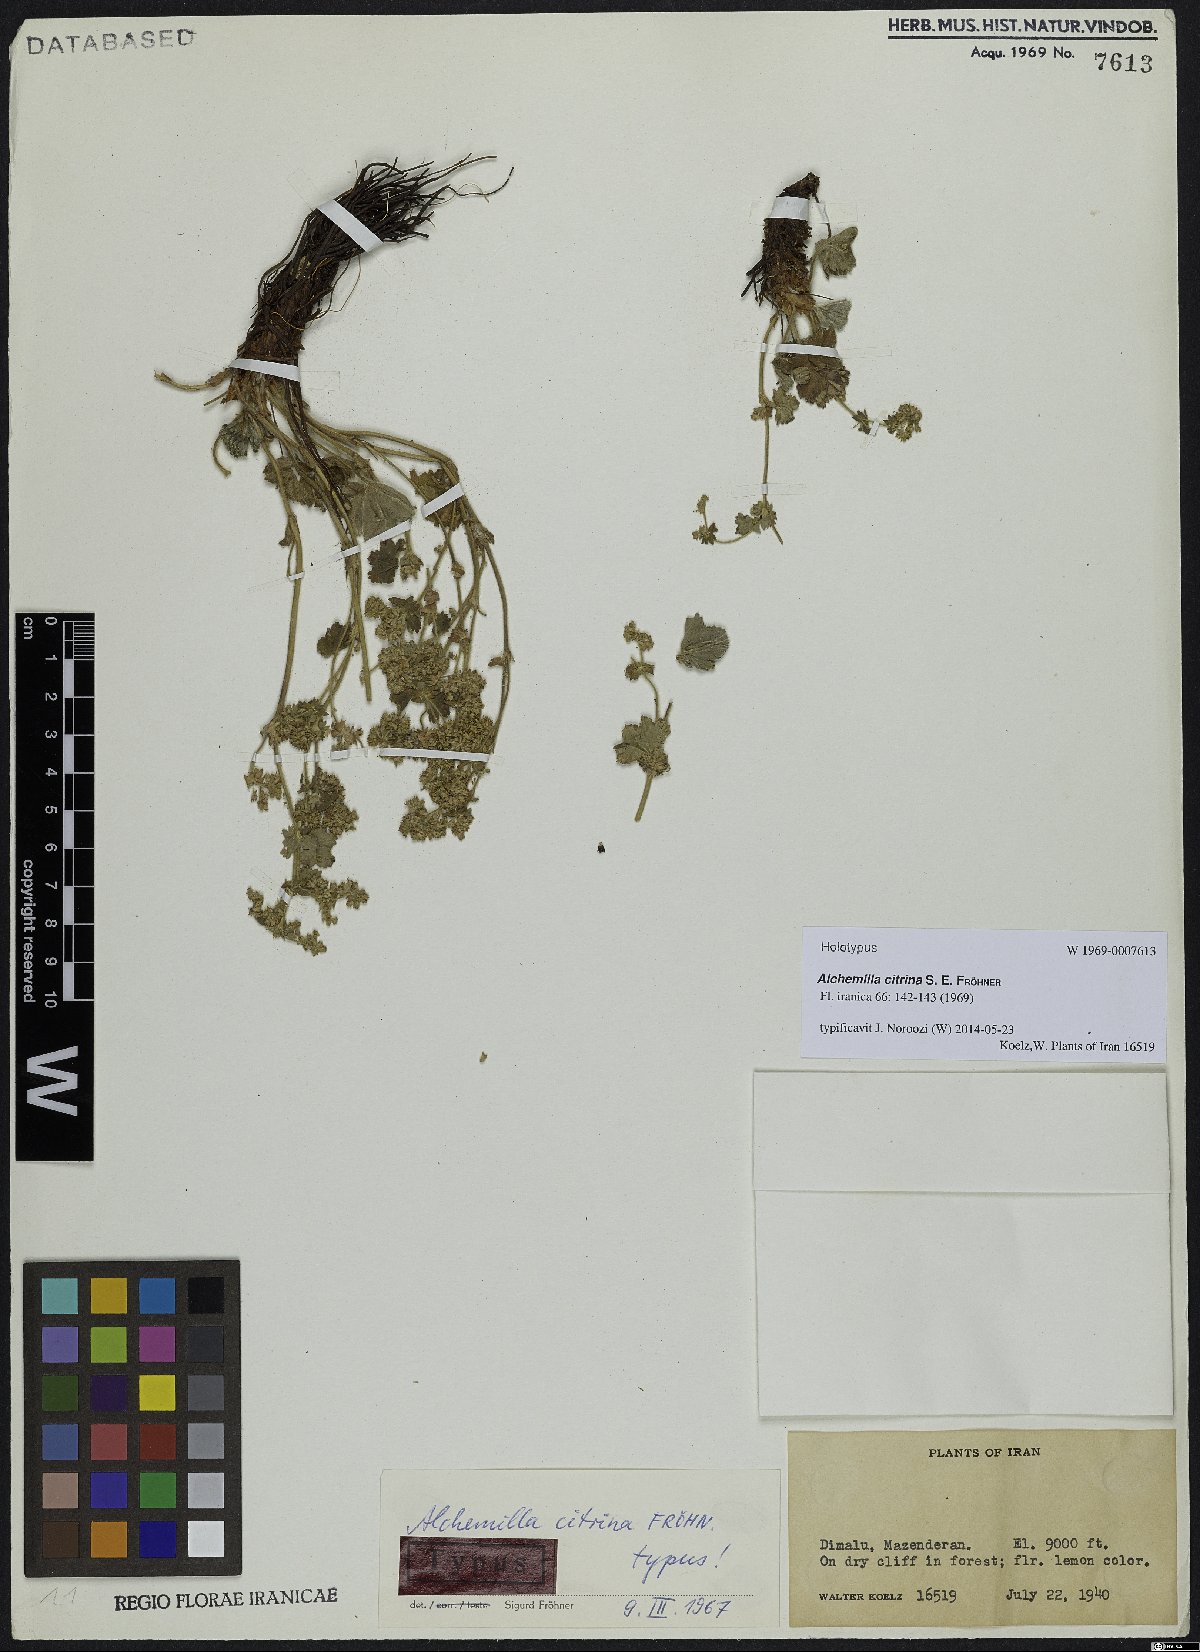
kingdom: Plantae
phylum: Tracheophyta
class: Magnoliopsida
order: Rosales
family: Rosaceae
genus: Alchemilla
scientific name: Alchemilla citrina
